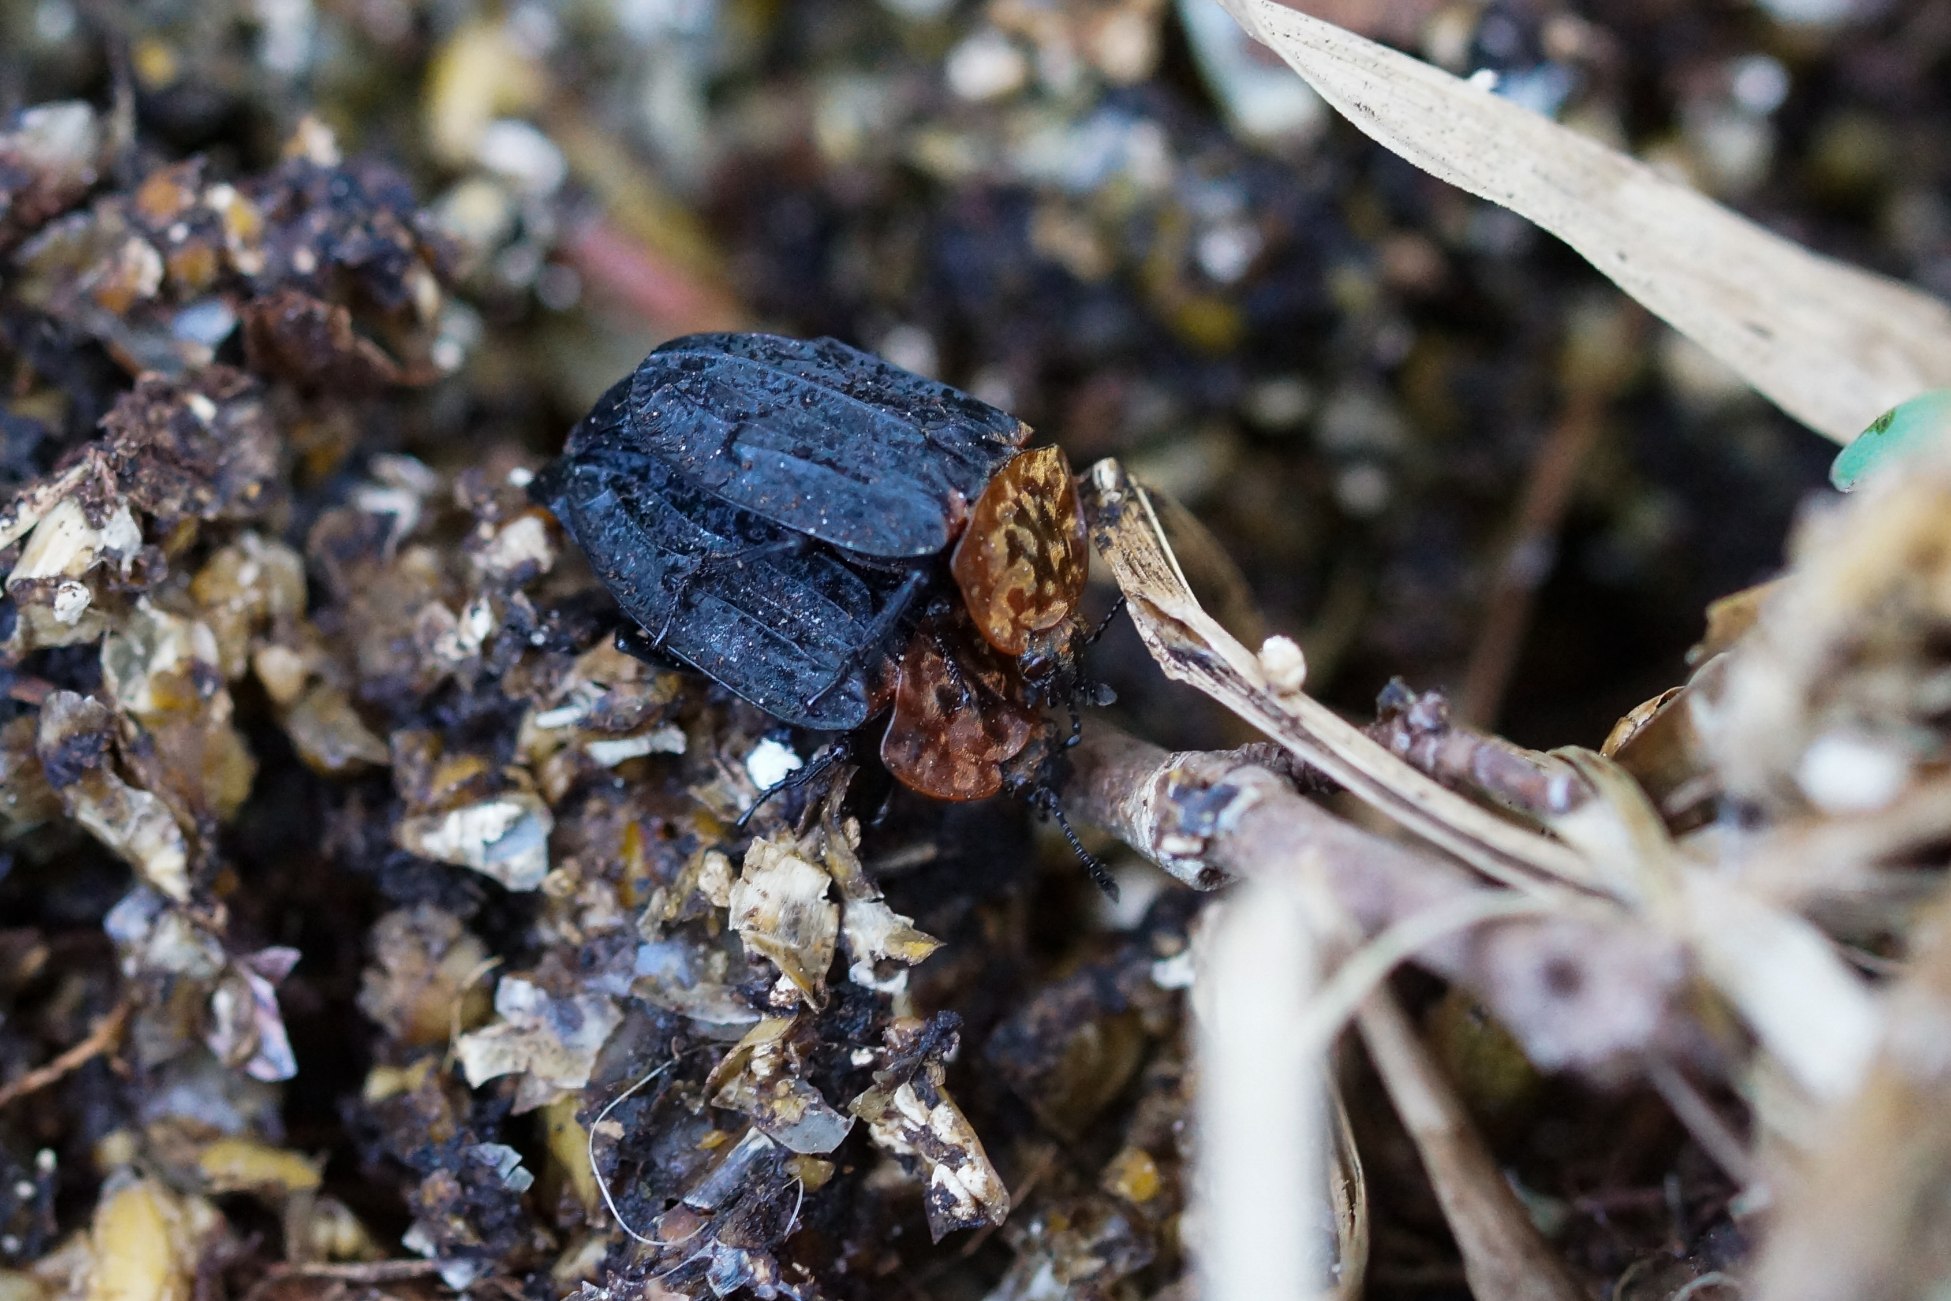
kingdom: Animalia
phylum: Arthropoda
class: Insecta
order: Coleoptera
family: Staphylinidae
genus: Oiceoptoma
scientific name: Oiceoptoma thoracicum
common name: Rødbrystet ådselbille
